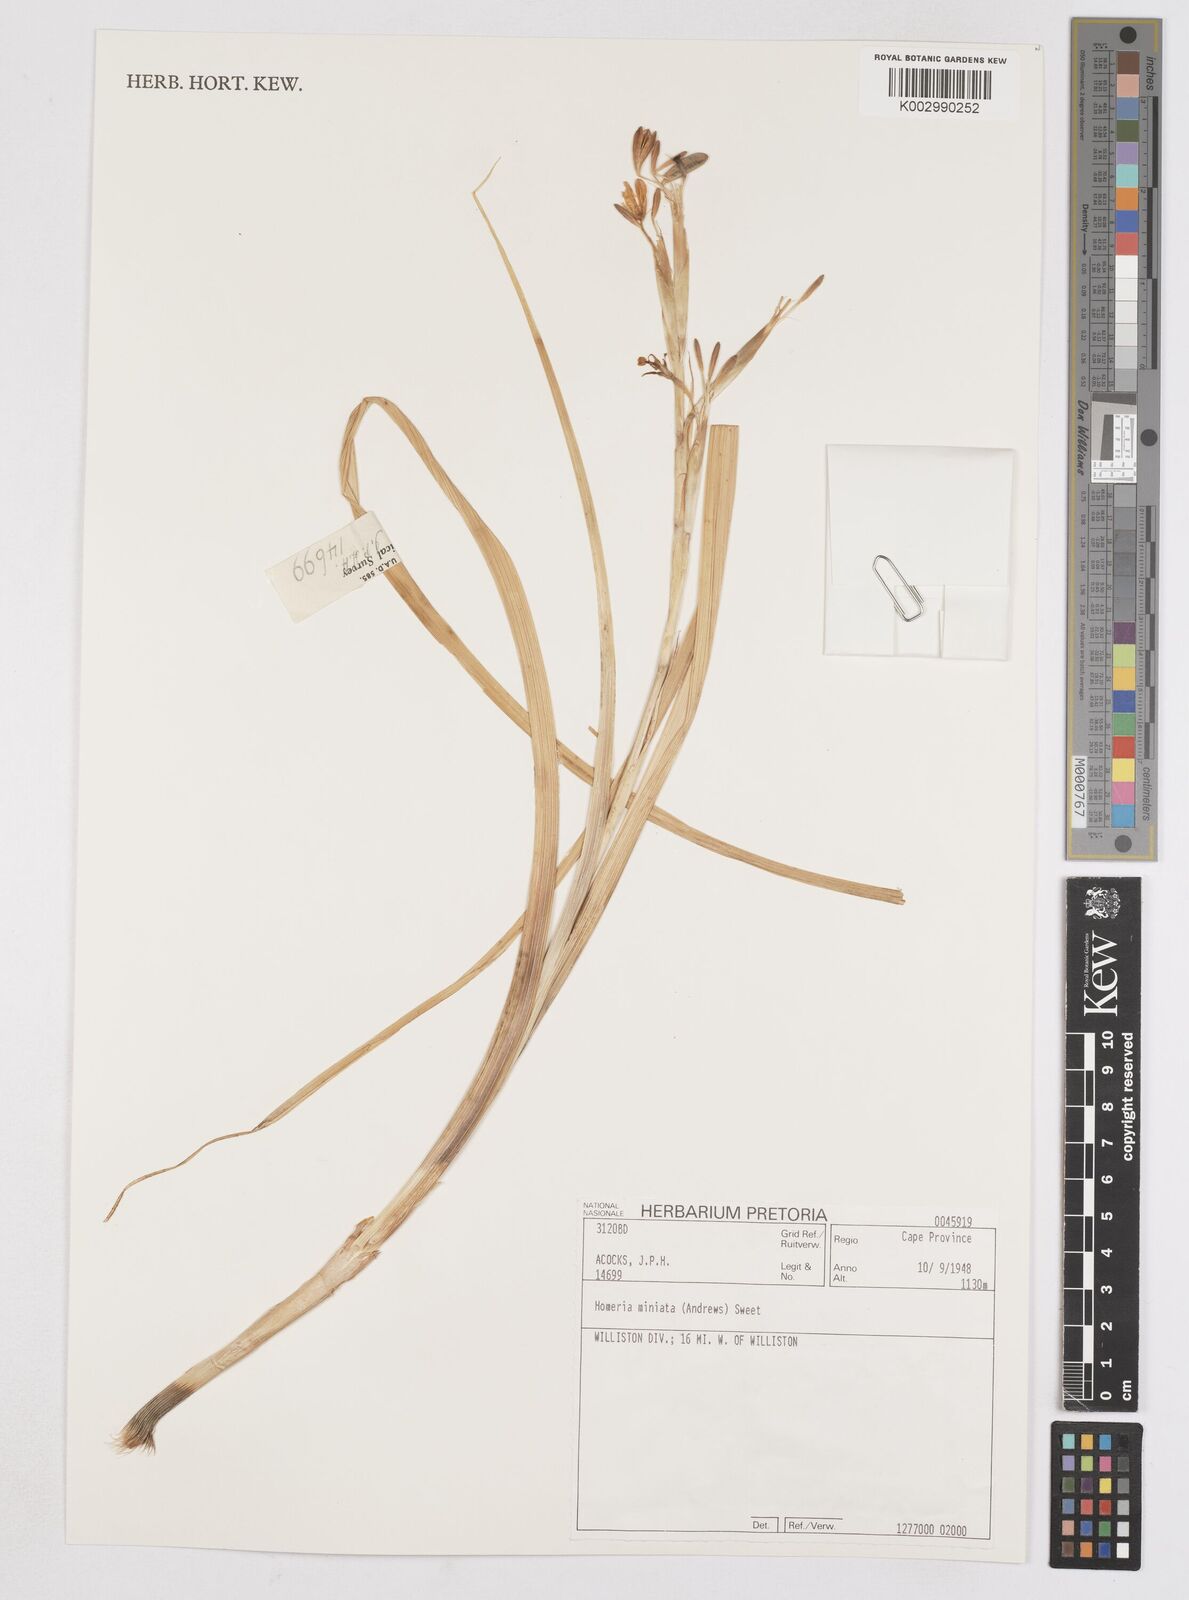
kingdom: Plantae
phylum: Tracheophyta
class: Liliopsida
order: Asparagales
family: Iridaceae
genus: Moraea
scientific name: Moraea miniata
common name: Two-leaf cape-tulip
